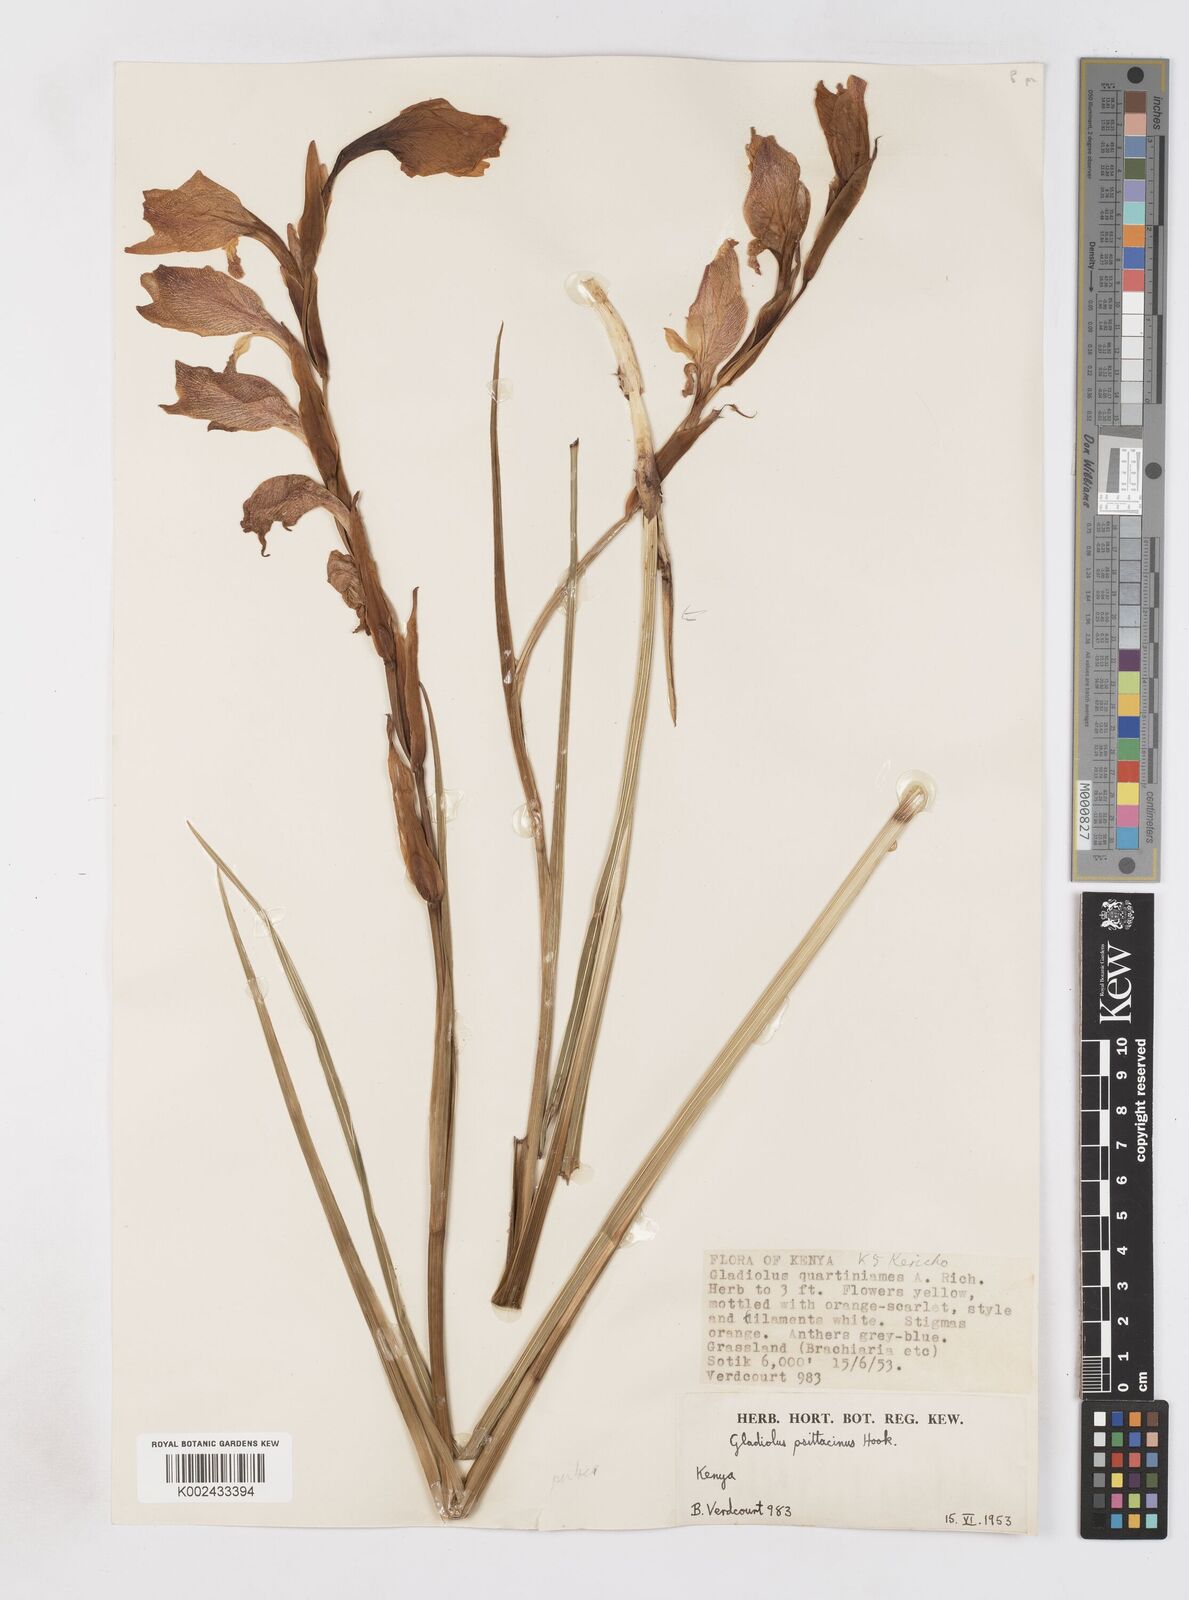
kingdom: Plantae
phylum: Tracheophyta
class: Liliopsida
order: Asparagales
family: Iridaceae
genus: Gladiolus
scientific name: Gladiolus dalenii
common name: Cornflag
